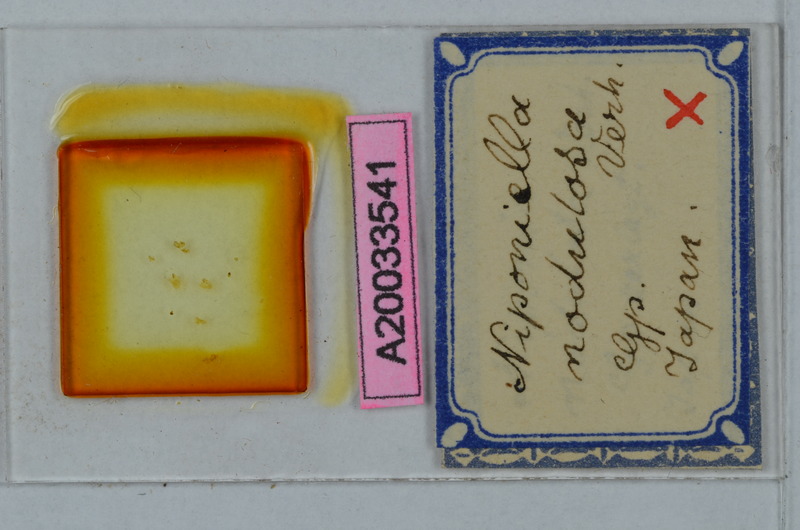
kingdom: Animalia
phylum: Arthropoda
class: Diplopoda
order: Polydesmida
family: Cryptodesmidae
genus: Niponia
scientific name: Niponia nodulosa
